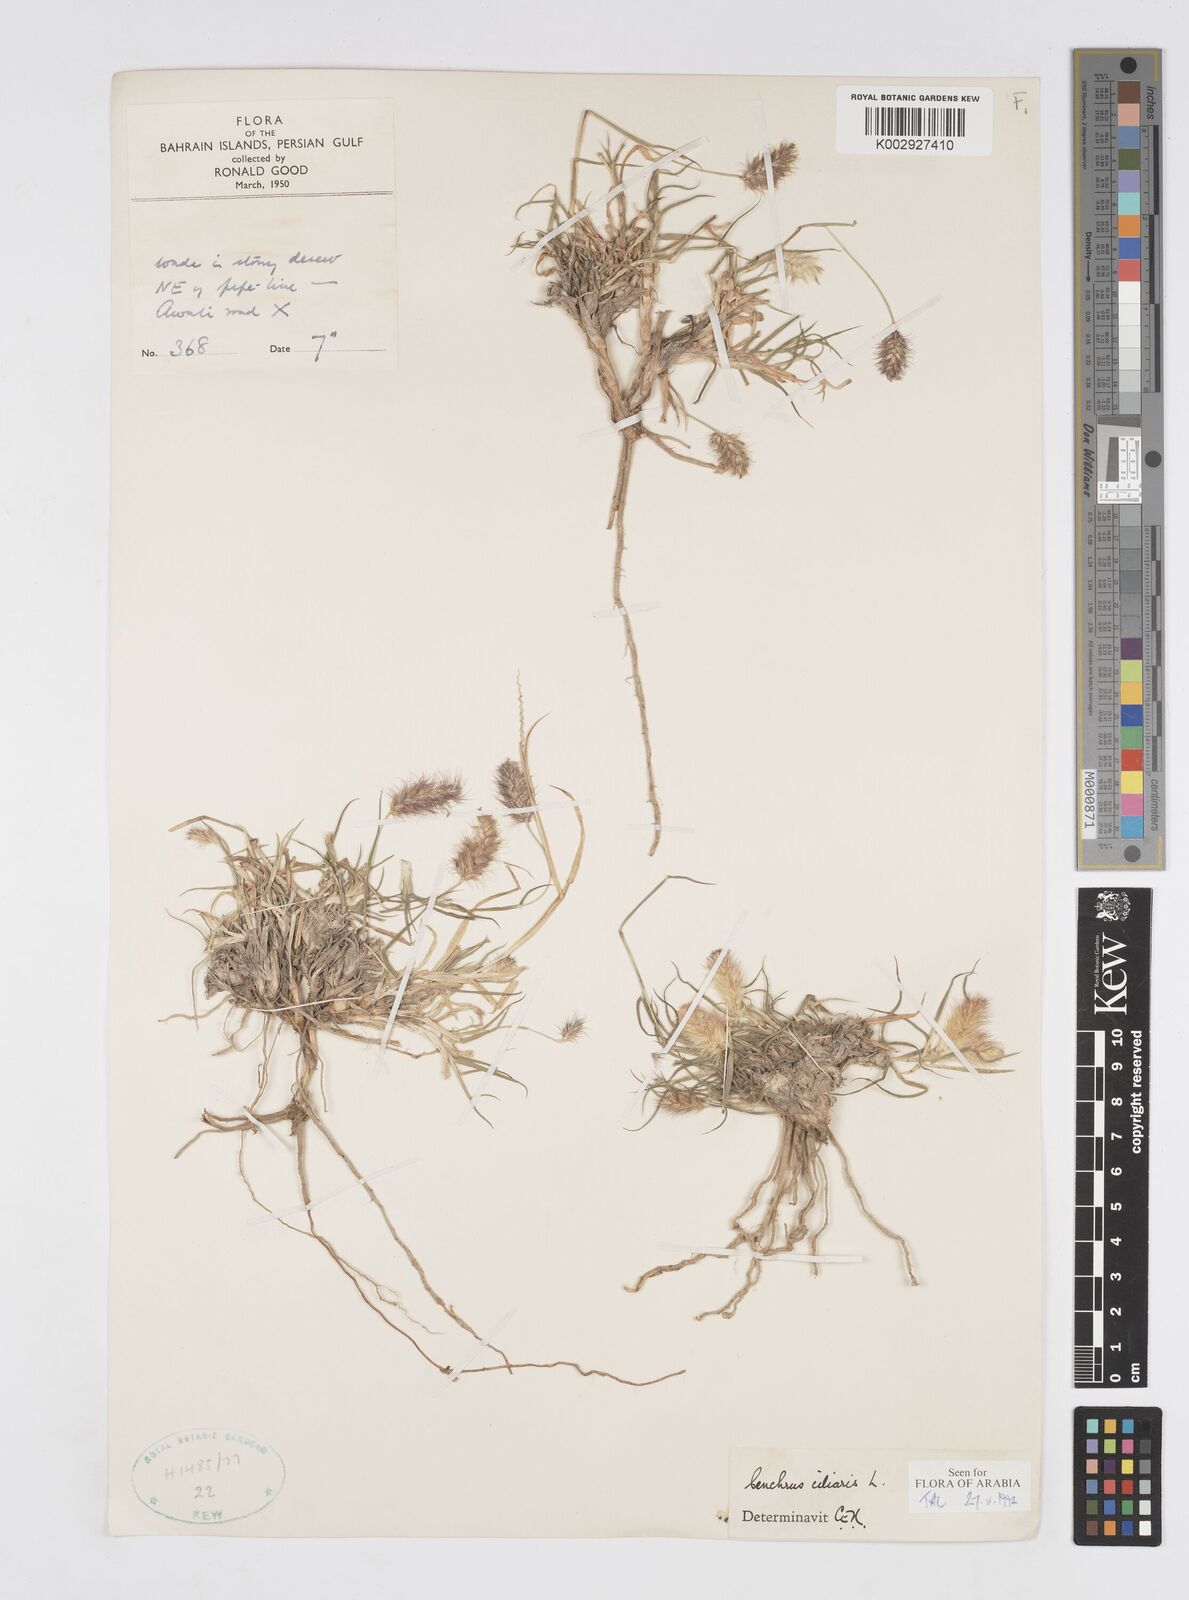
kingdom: Plantae
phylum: Tracheophyta
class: Liliopsida
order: Poales
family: Poaceae
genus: Cenchrus
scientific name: Cenchrus ciliaris
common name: Buffelgrass
